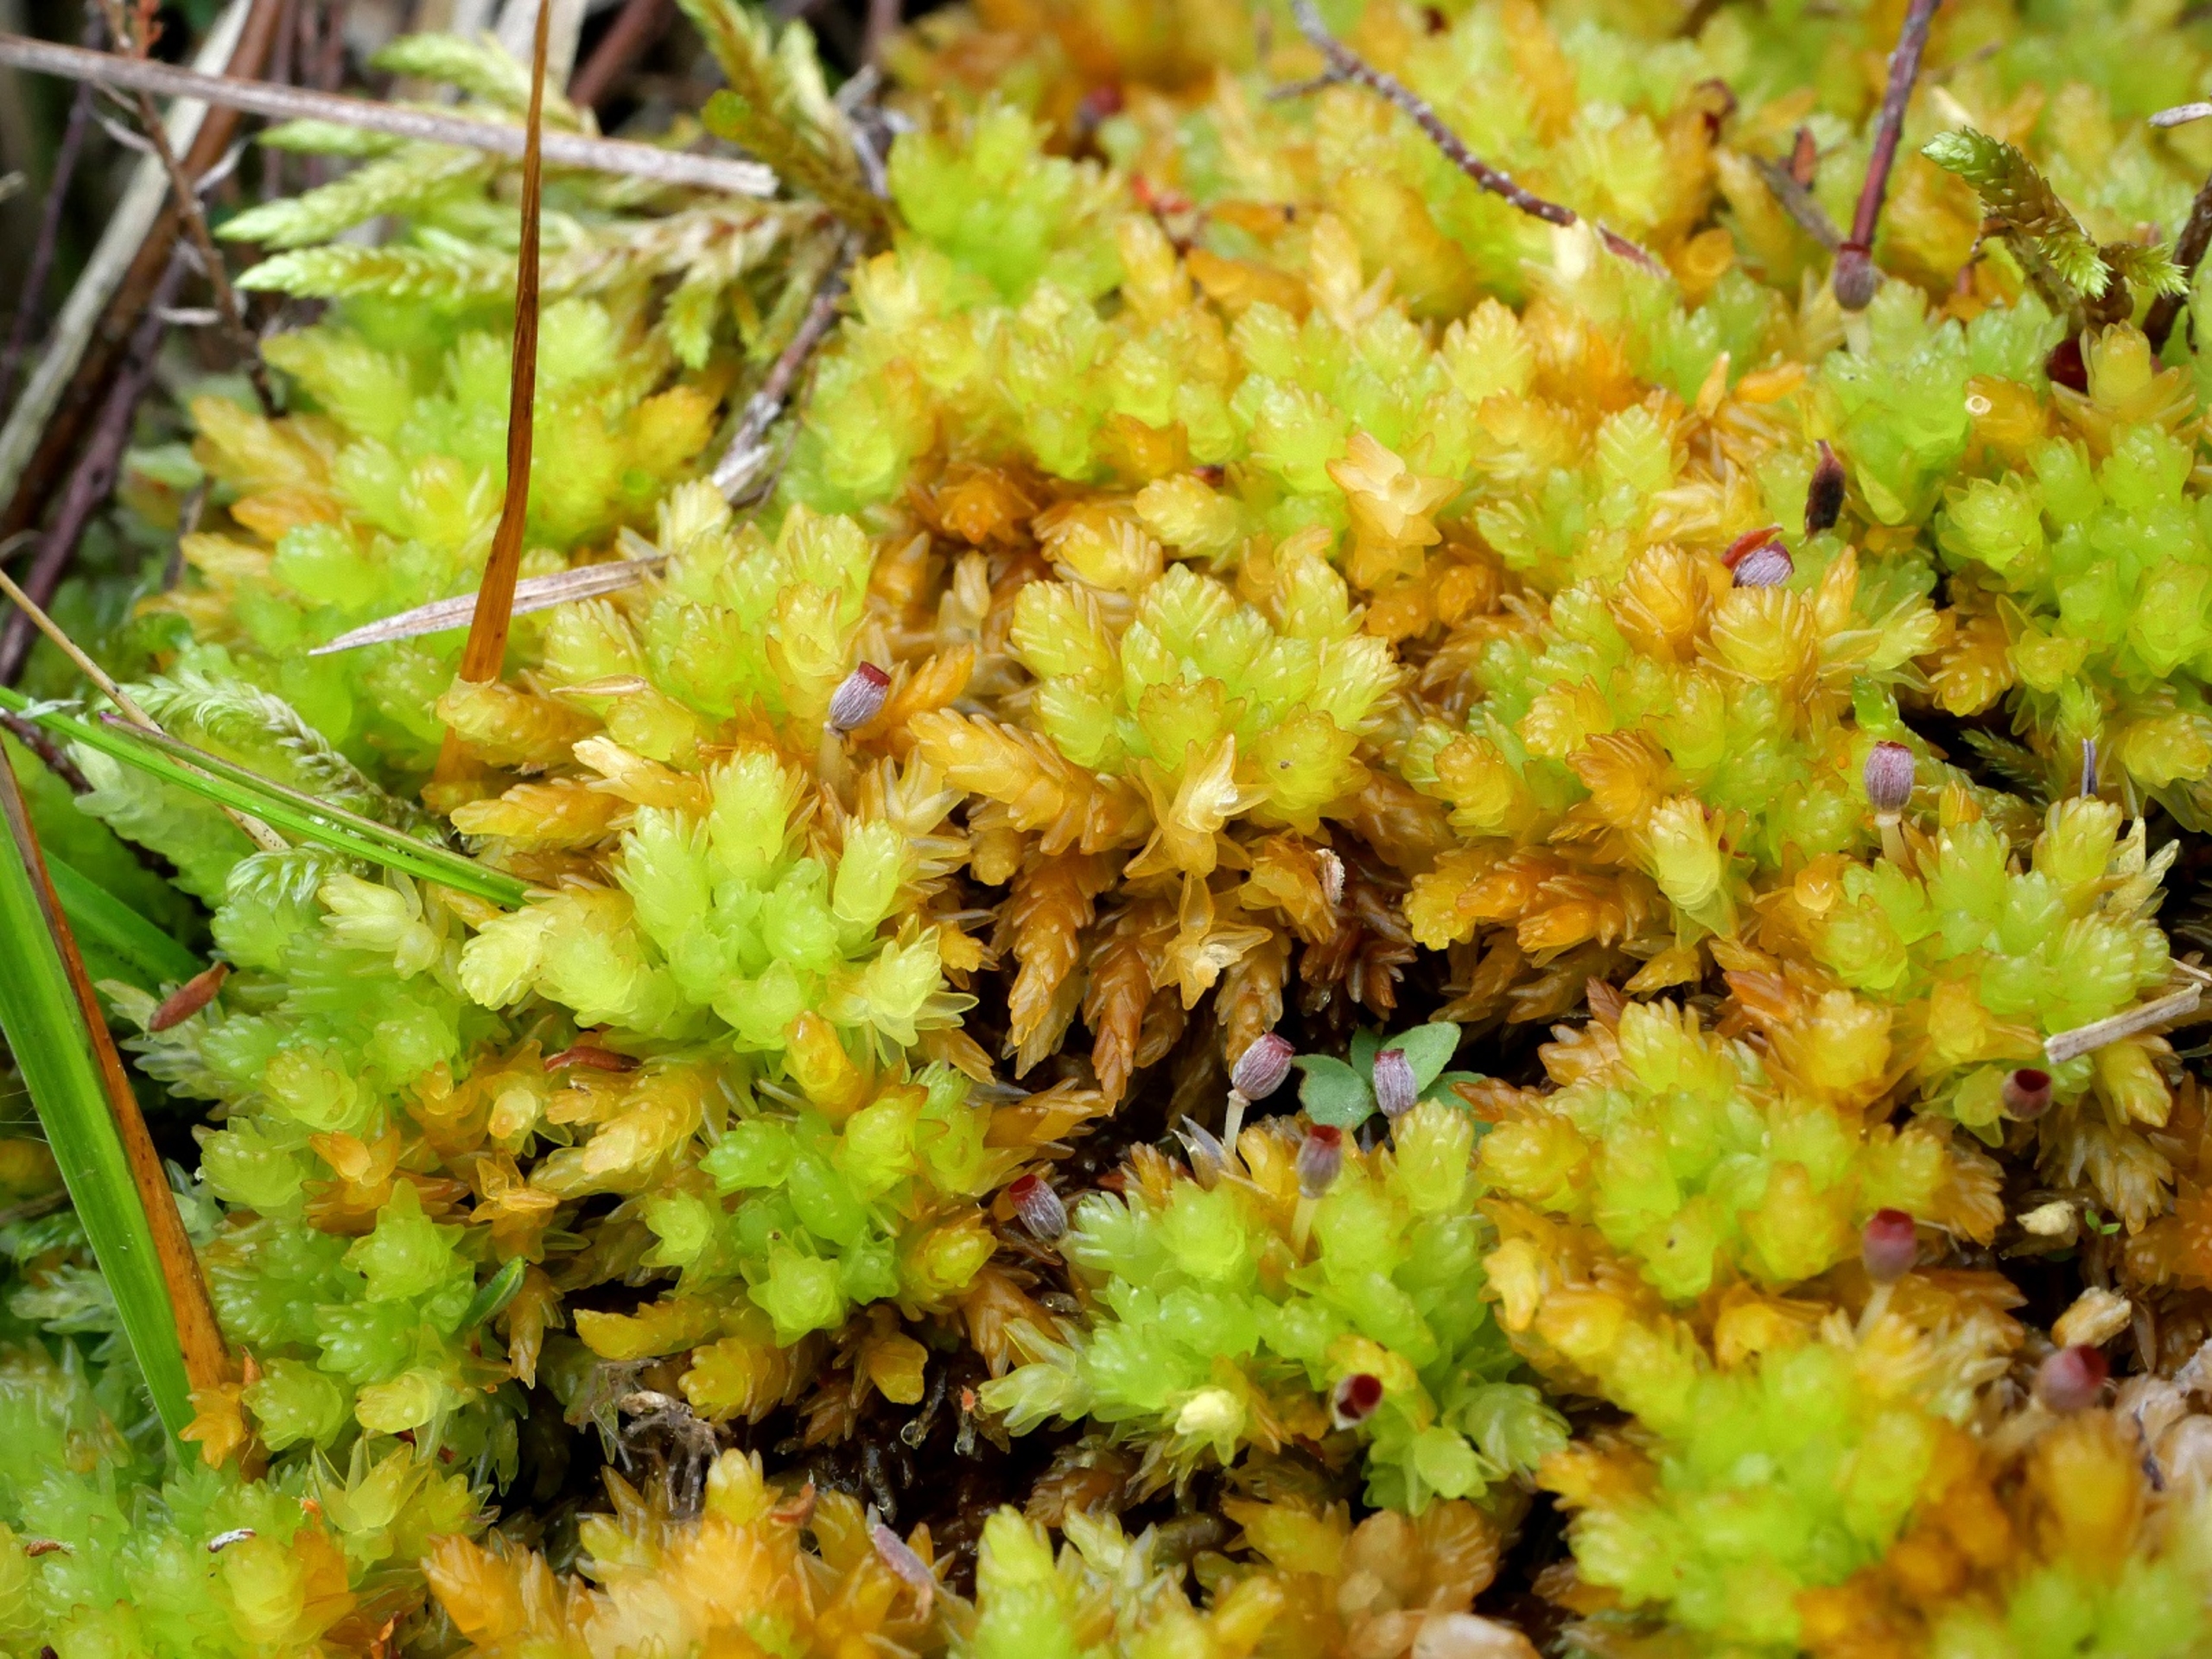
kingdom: Plantae
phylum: Bryophyta
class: Sphagnopsida
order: Sphagnales
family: Sphagnaceae
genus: Sphagnum
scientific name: Sphagnum compactum
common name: Tæt tørvemos
